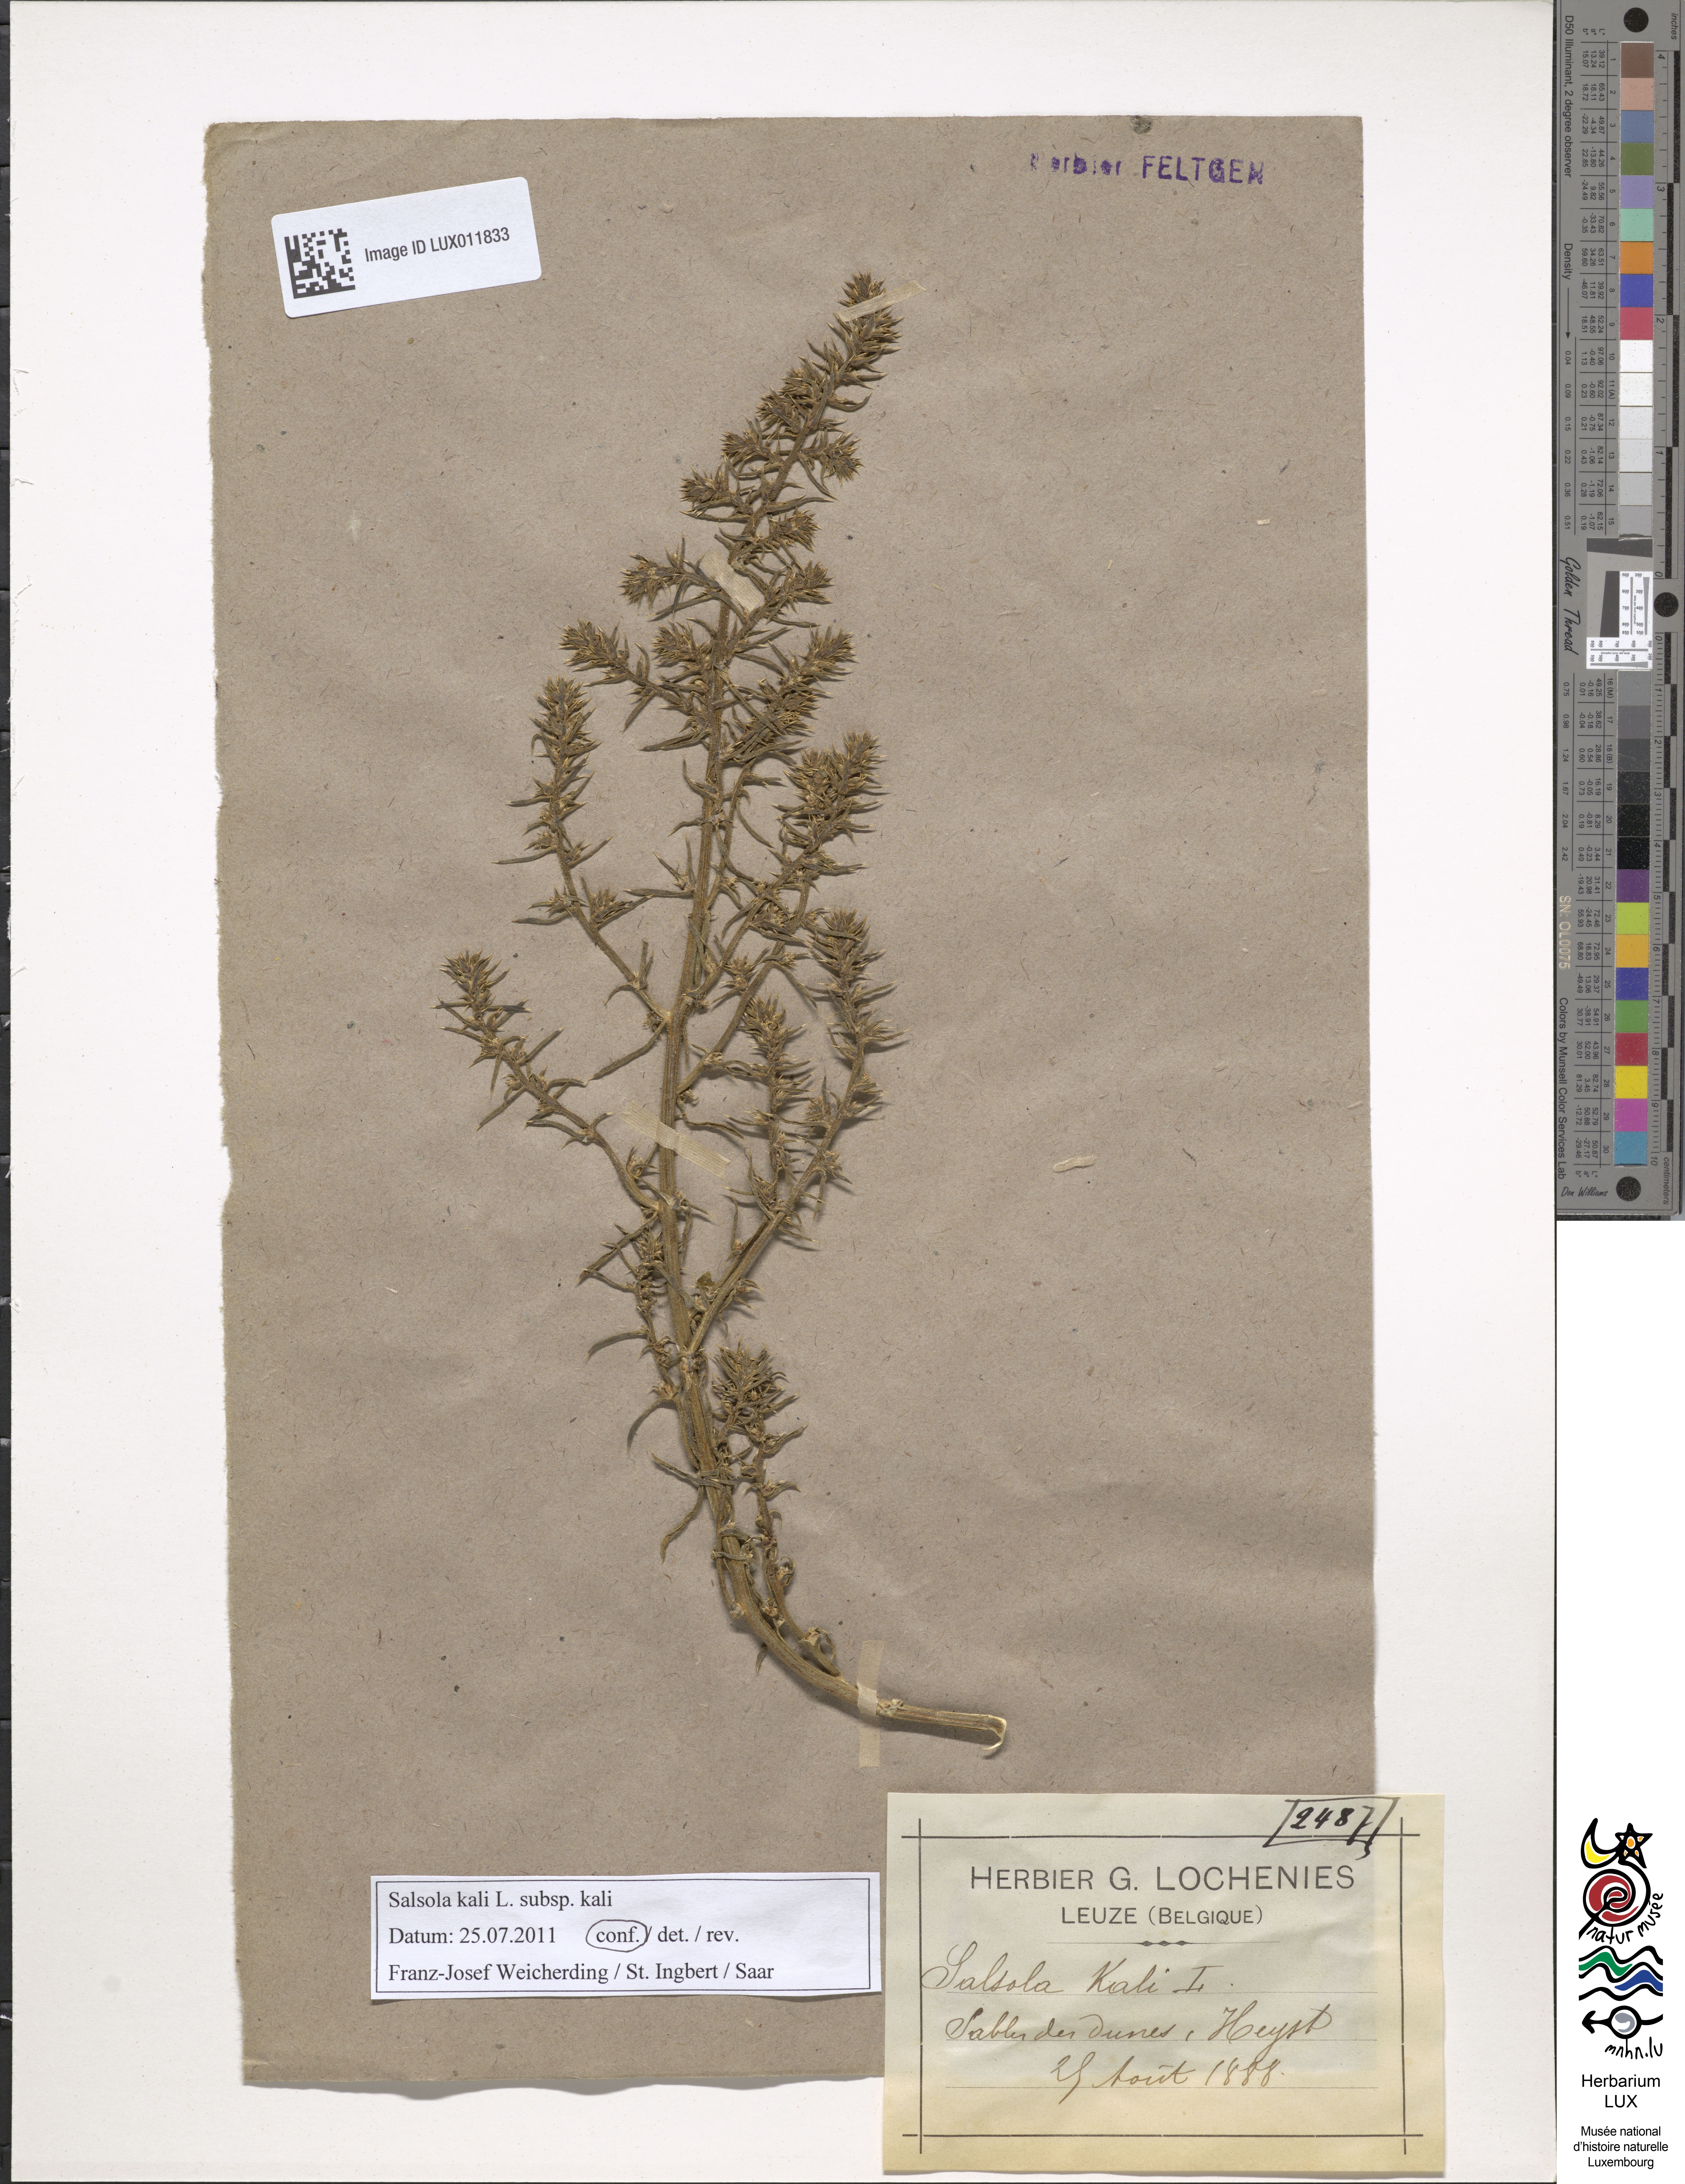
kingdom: Plantae
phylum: Tracheophyta
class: Magnoliopsida
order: Caryophyllales
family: Amaranthaceae
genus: Salsola
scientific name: Salsola kali
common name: Saltwort
